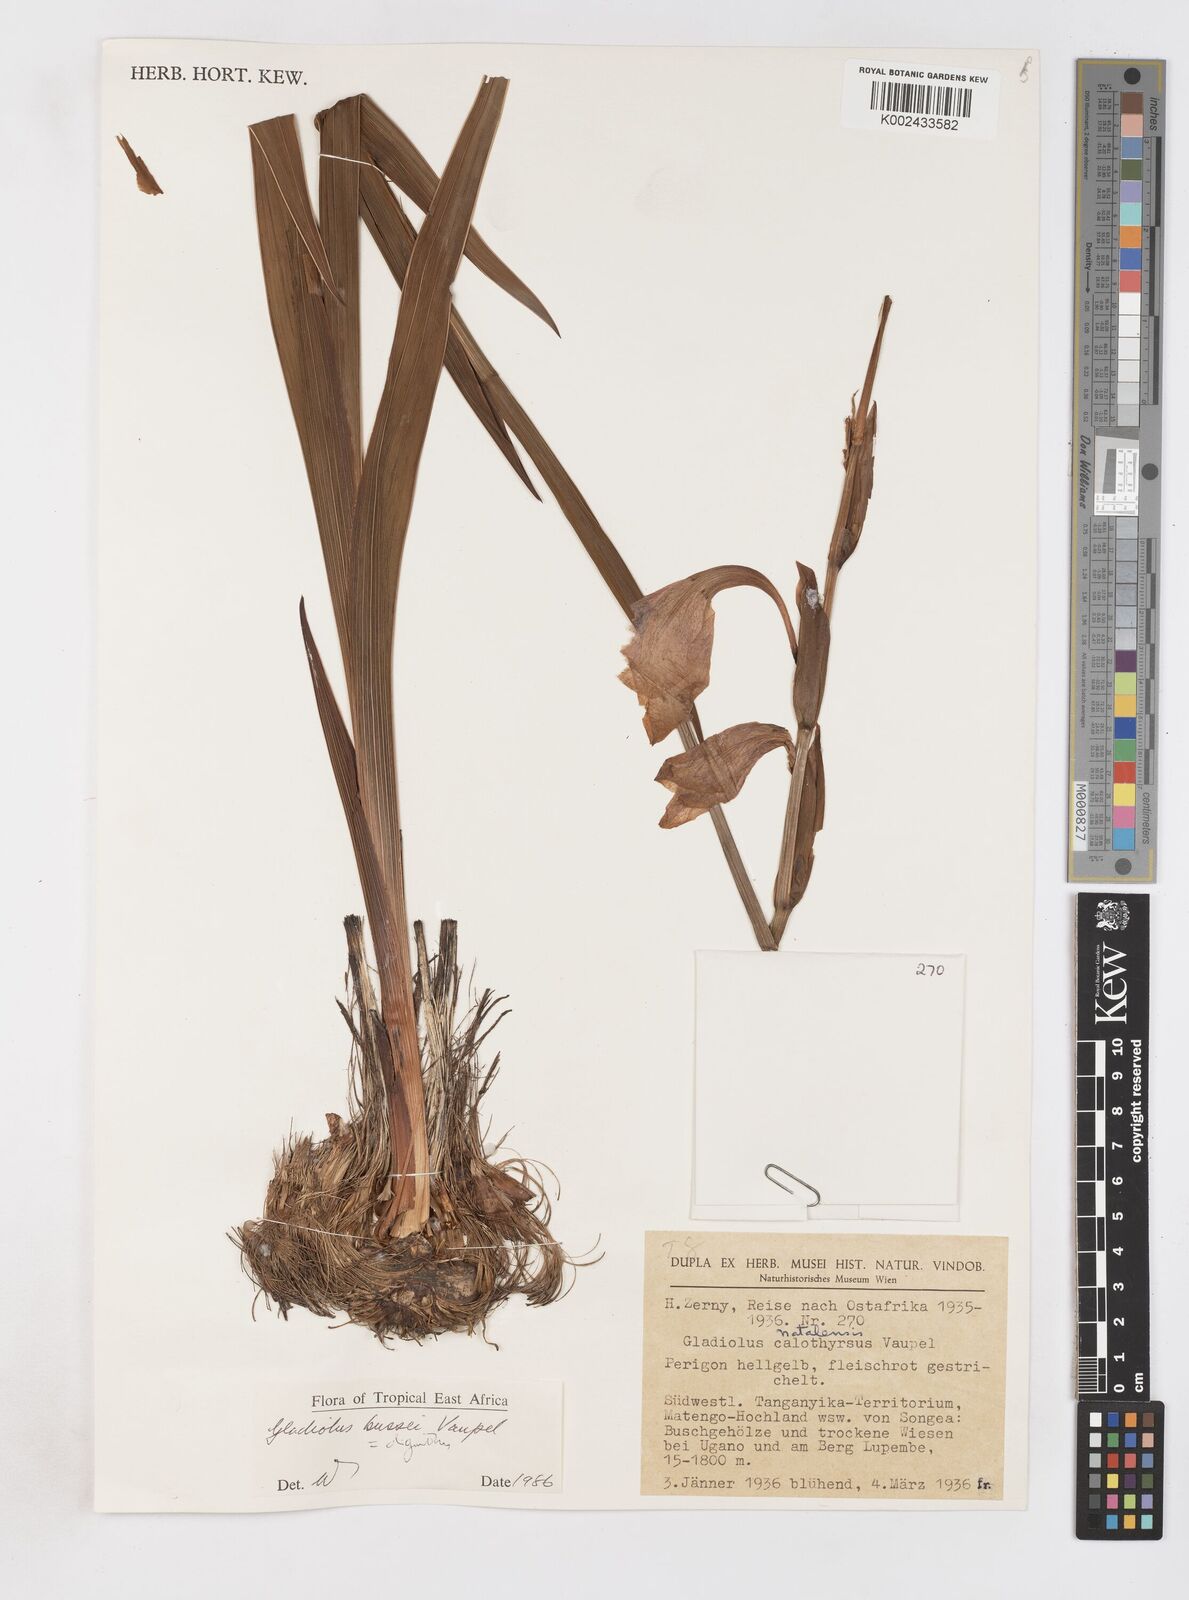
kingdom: Plantae
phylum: Tracheophyta
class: Liliopsida
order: Asparagales
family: Iridaceae
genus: Gladiolus
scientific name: Gladiolus oliganthus
